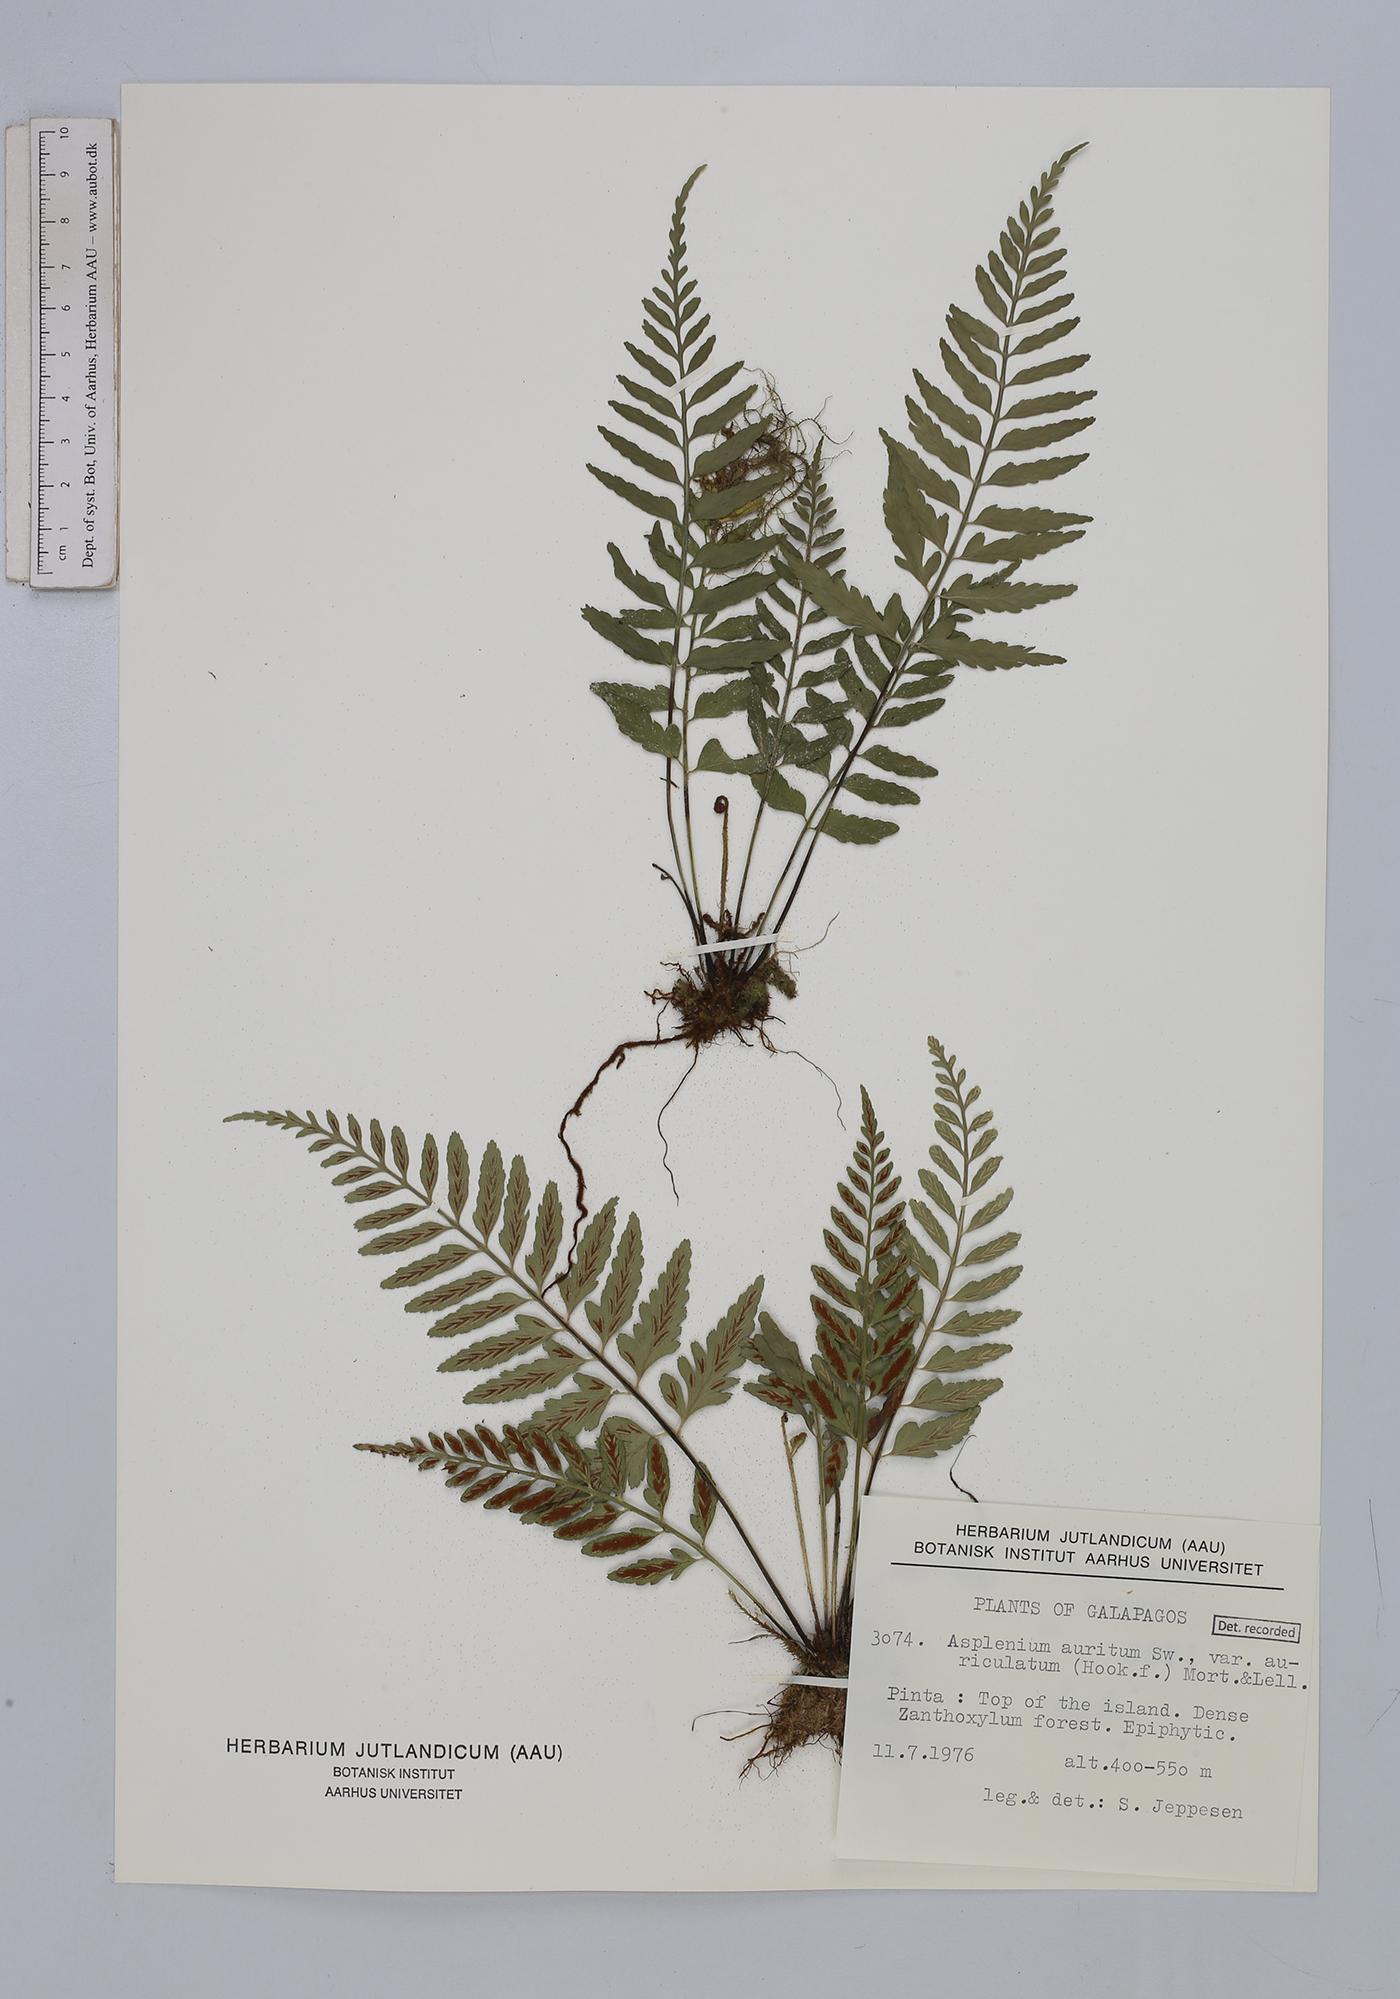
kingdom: Plantae
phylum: Tracheophyta
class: Polypodiopsida
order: Polypodiales
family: Aspleniaceae
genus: Asplenium
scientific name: Asplenium auritum
